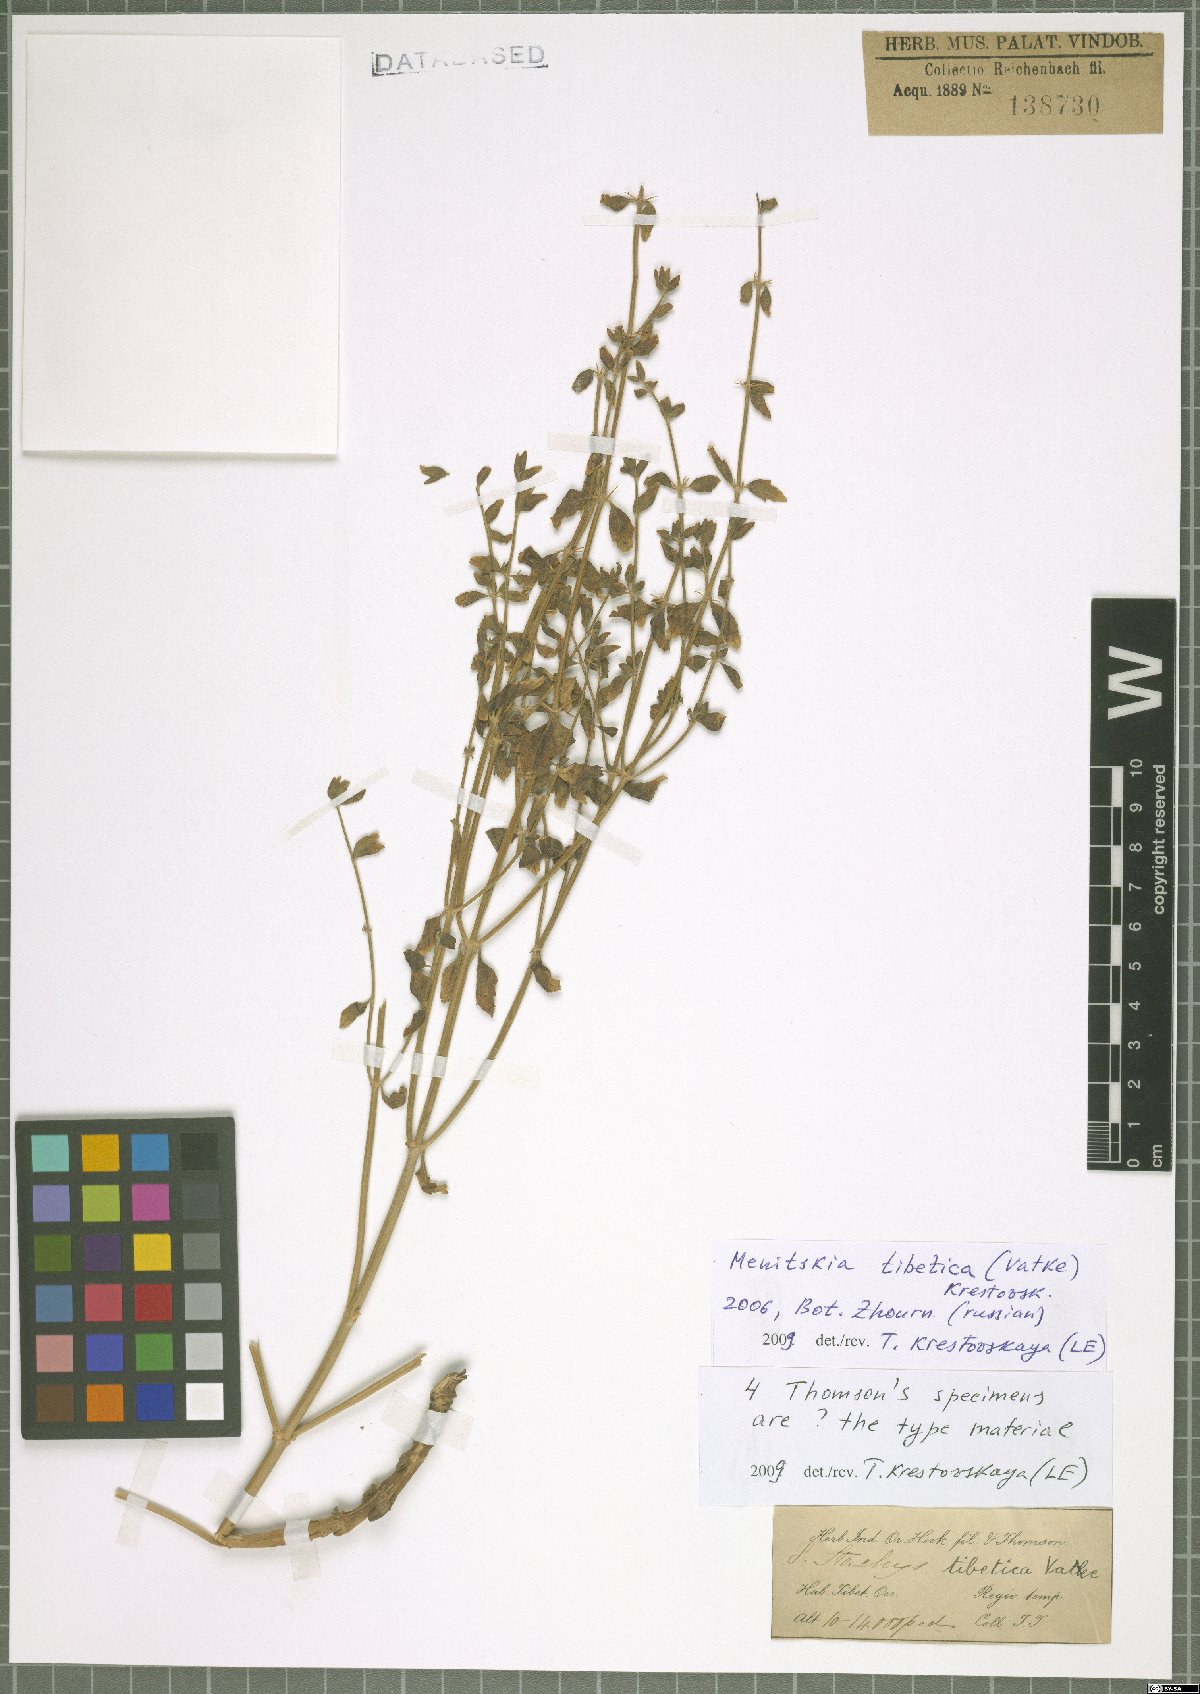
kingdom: Plantae
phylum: Tracheophyta
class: Magnoliopsida
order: Lamiales
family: Lamiaceae
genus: Eriophyton
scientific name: Eriophyton tibeticum
